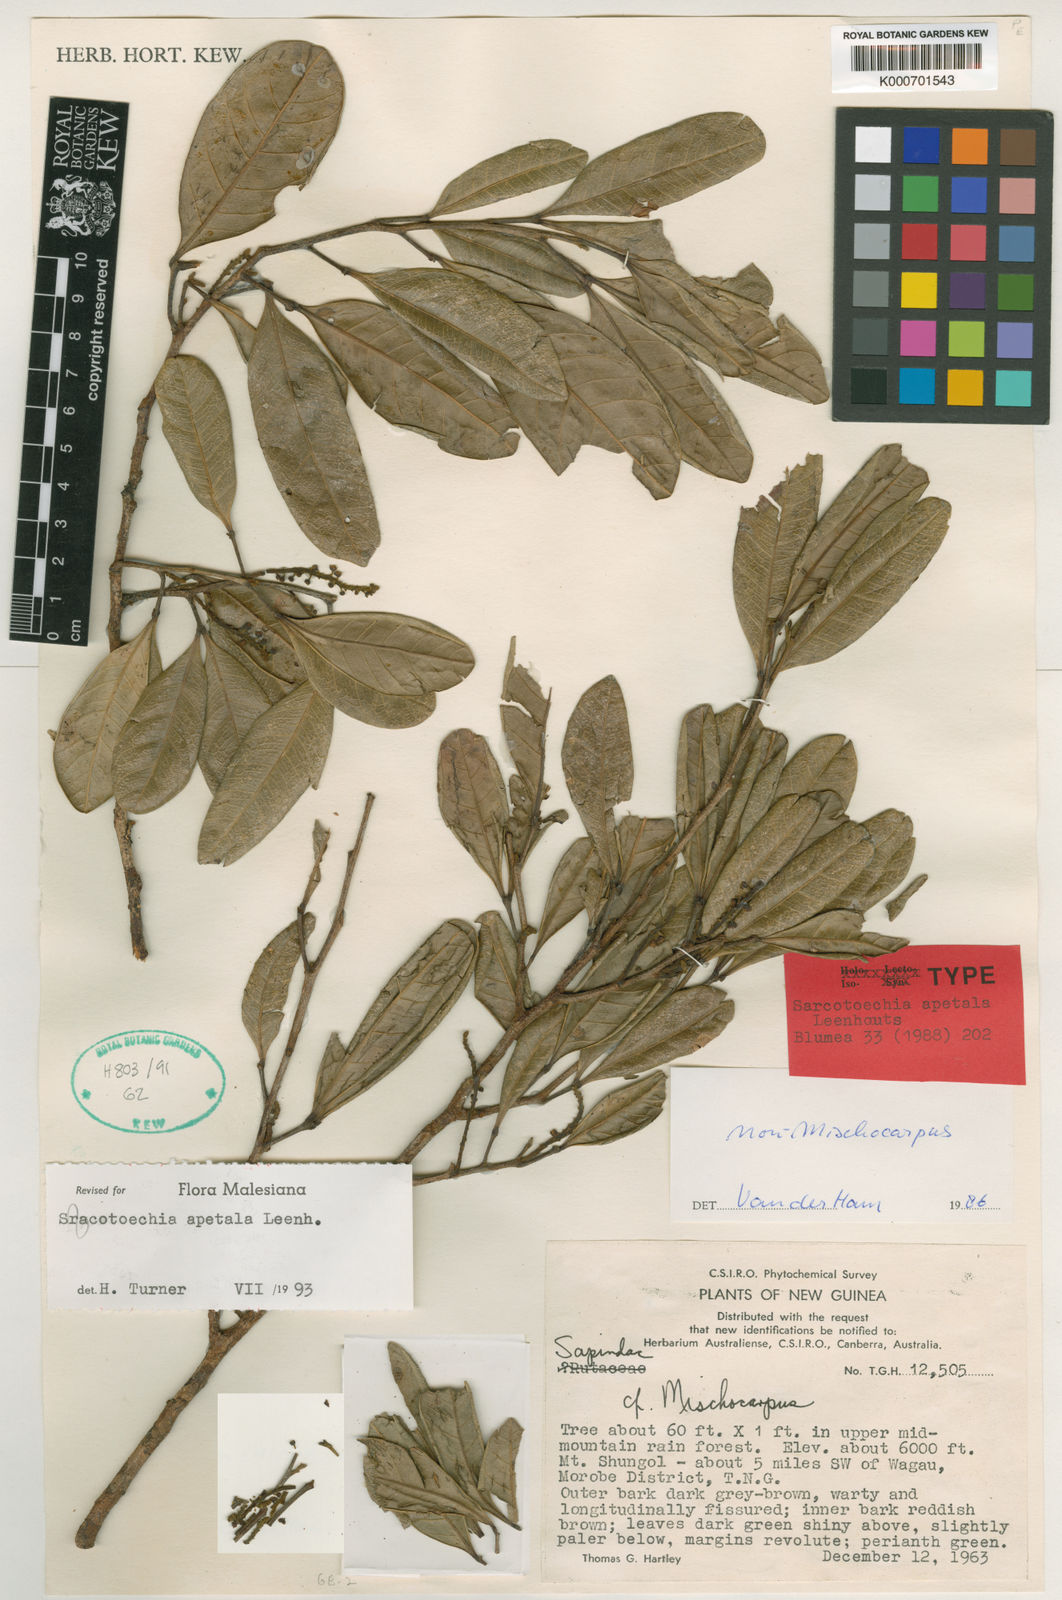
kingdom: Plantae
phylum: Tracheophyta
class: Magnoliopsida
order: Sapindales
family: Sapindaceae
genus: Sarcotoechia
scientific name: Sarcotoechia apetala
